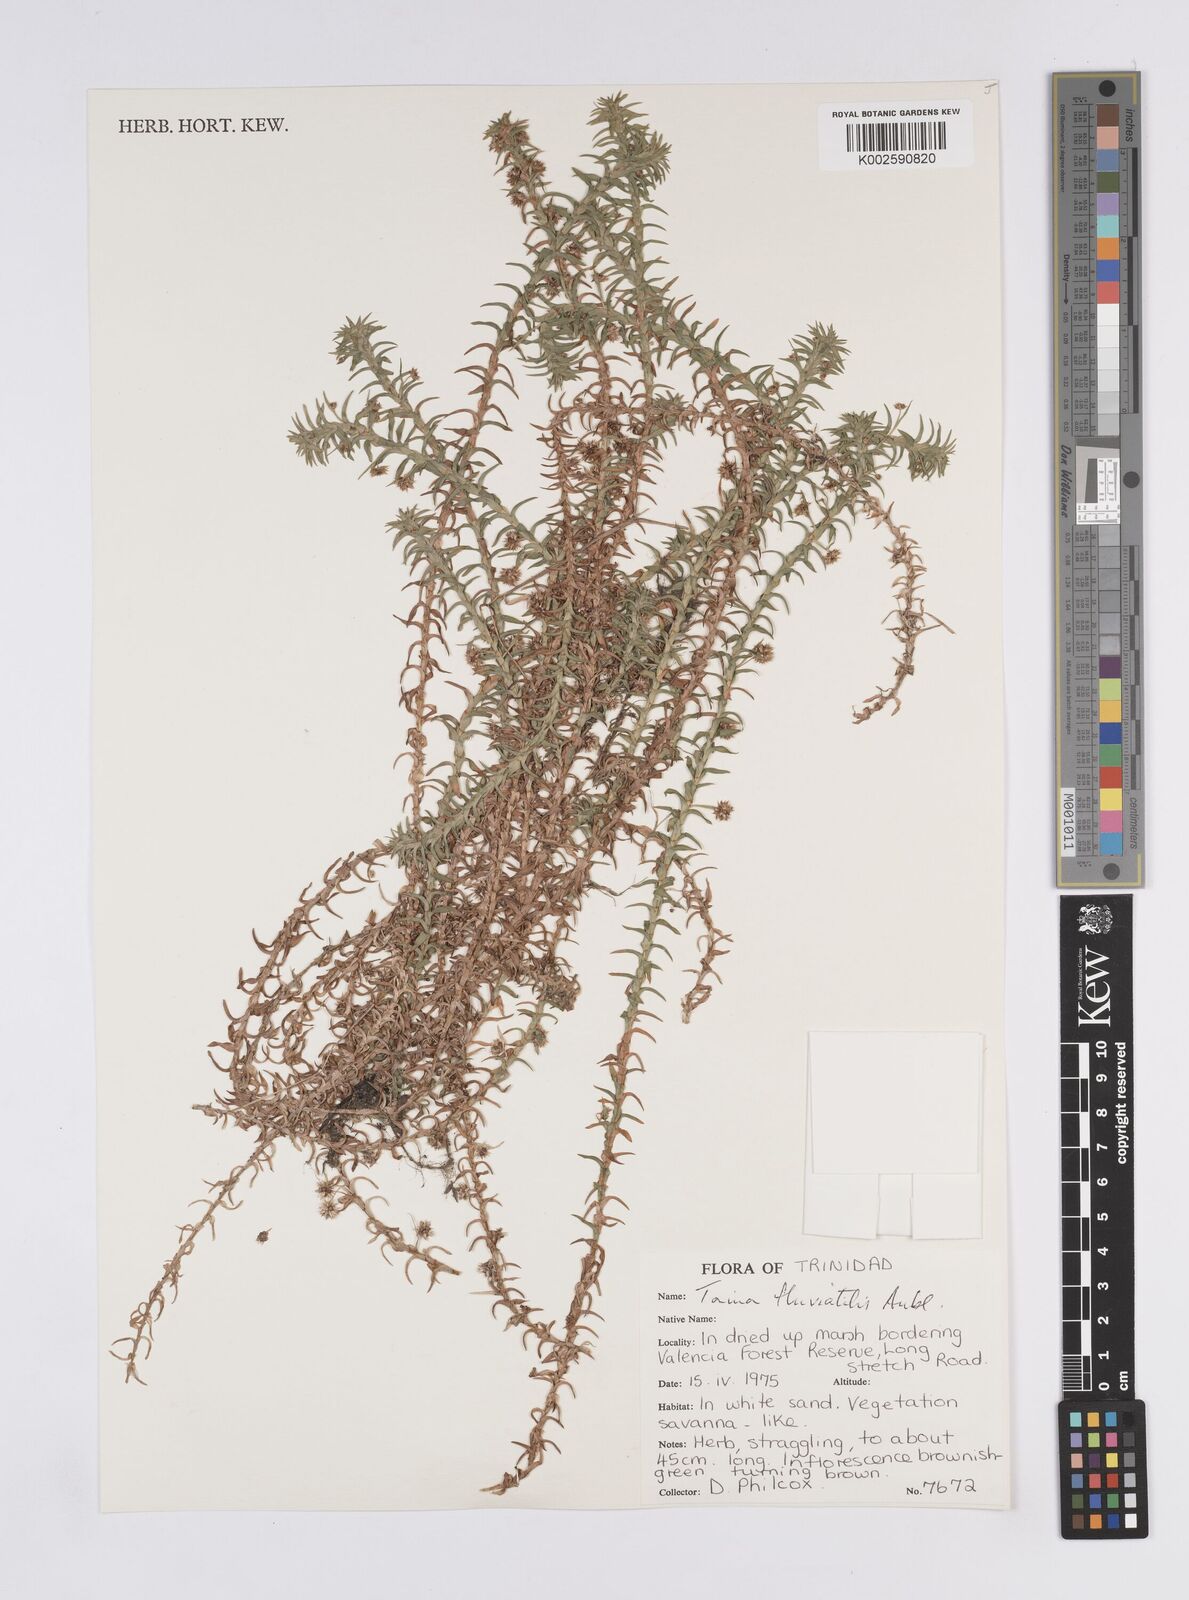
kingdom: Plantae
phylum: Tracheophyta
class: Liliopsida
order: Poales
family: Eriocaulaceae
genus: Paepalanthus
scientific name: Paepalanthus fluviatilis
